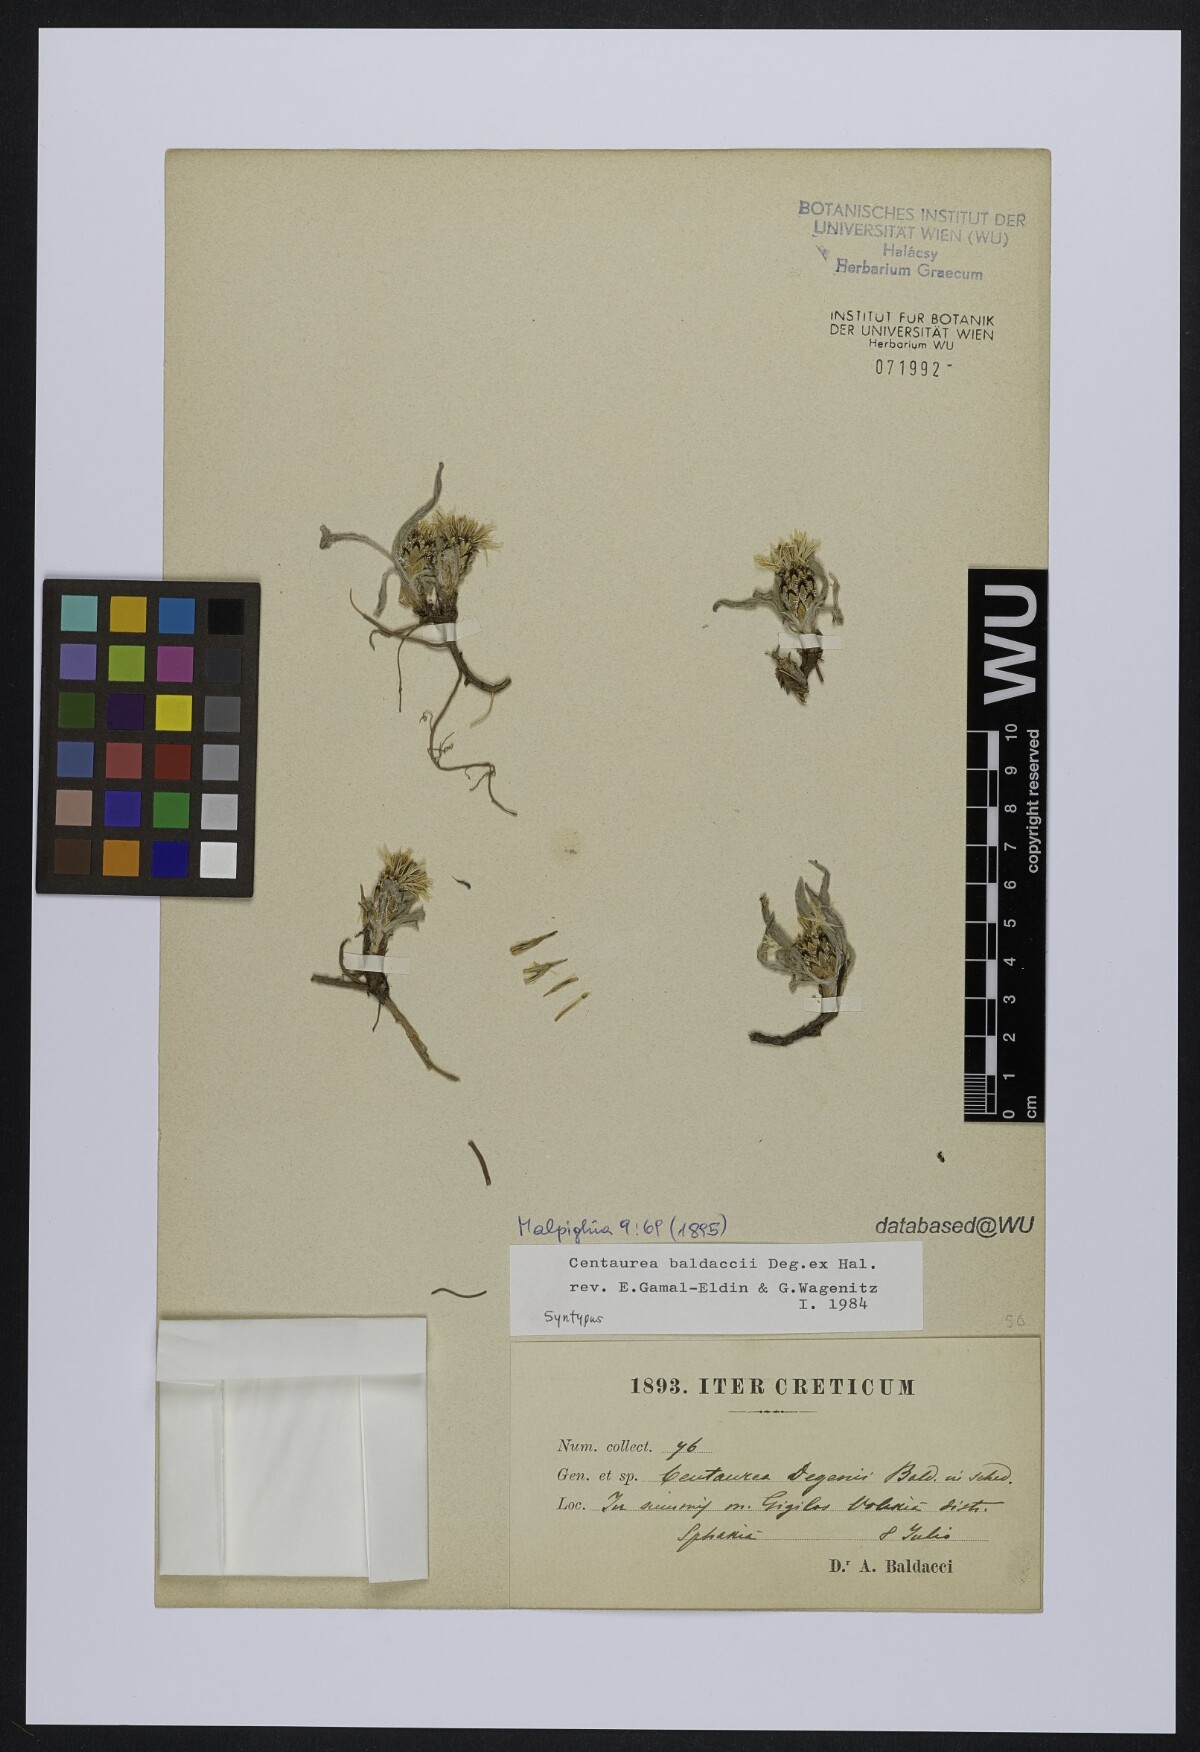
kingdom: Plantae
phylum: Tracheophyta
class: Magnoliopsida
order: Asterales
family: Asteraceae
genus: Centaurea
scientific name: Centaurea baldaccii
